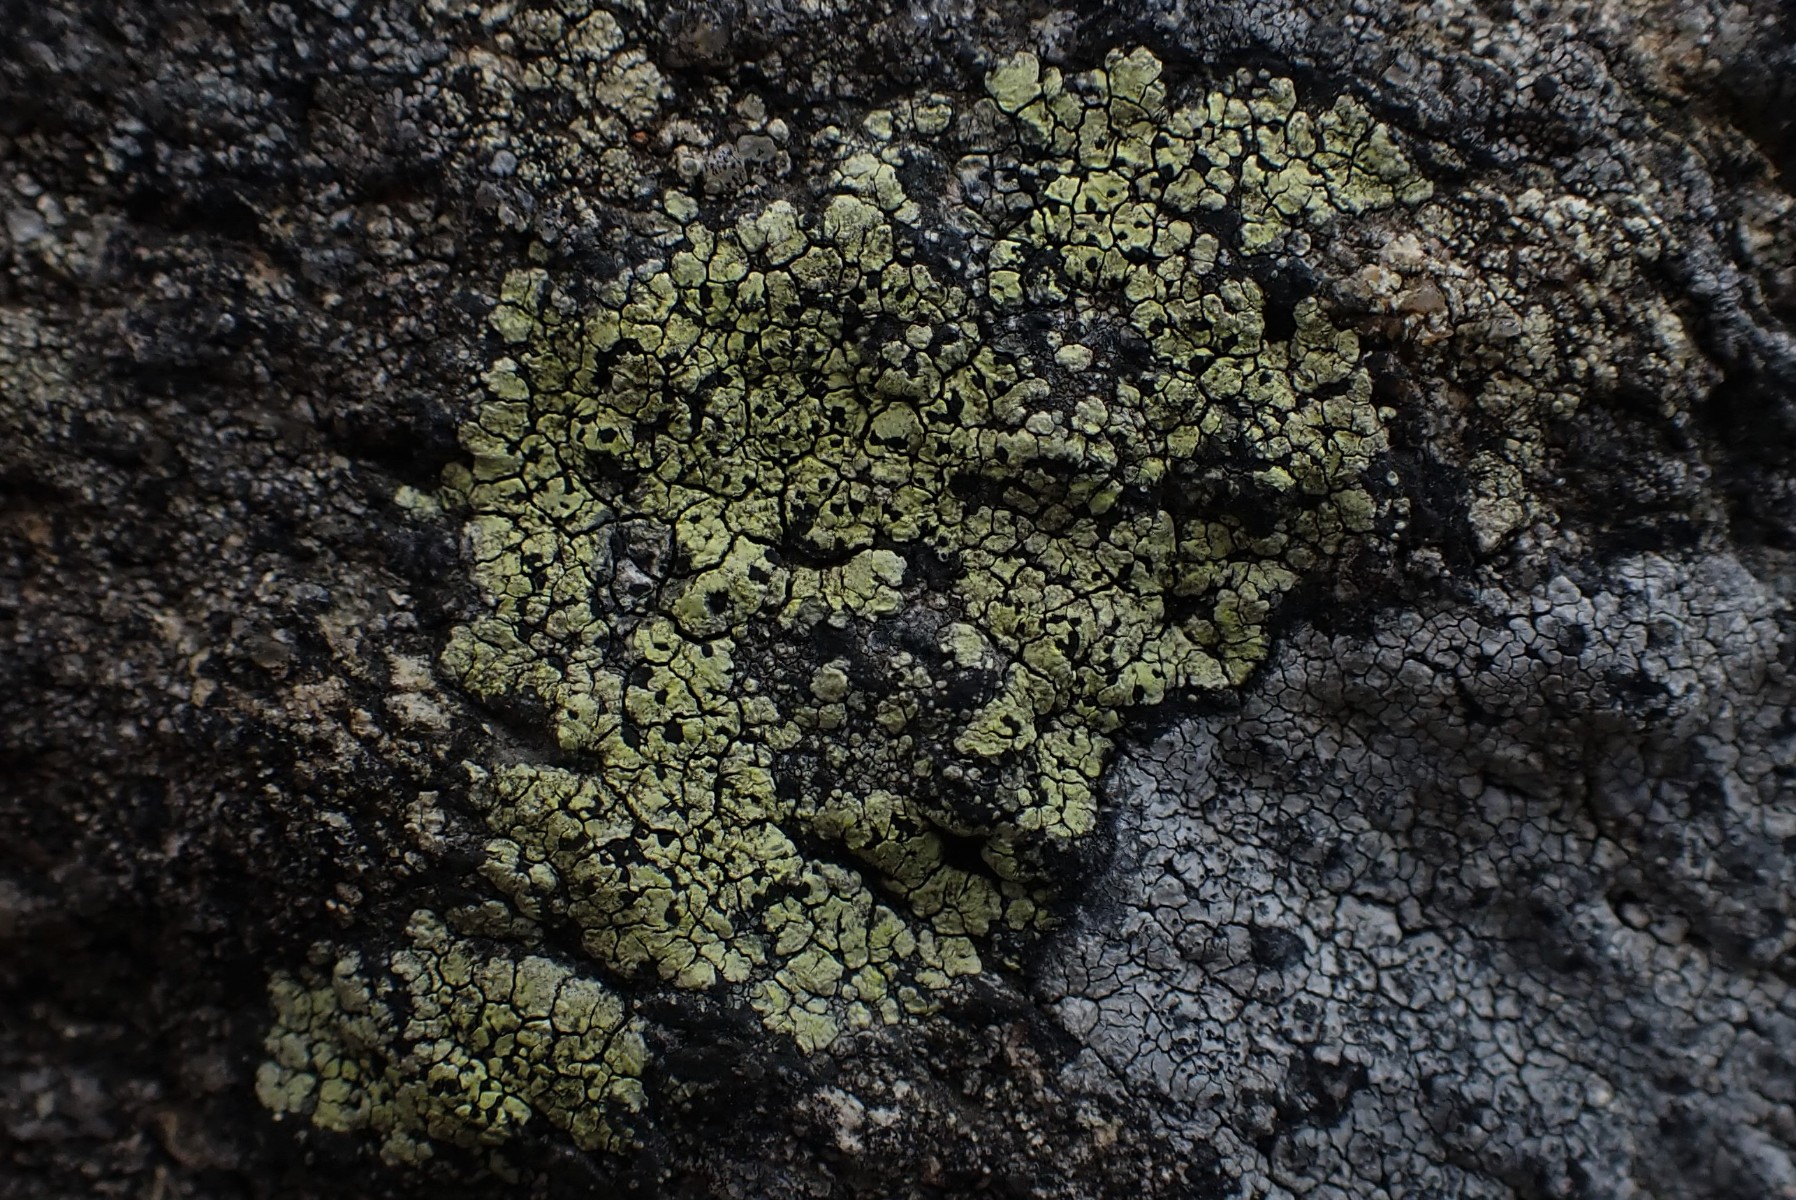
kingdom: Fungi
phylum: Ascomycota
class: Lecanoromycetes
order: Rhizocarpales
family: Rhizocarpaceae
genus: Rhizocarpon
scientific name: Rhizocarpon geographicum
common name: gulgrøn landkortlav
